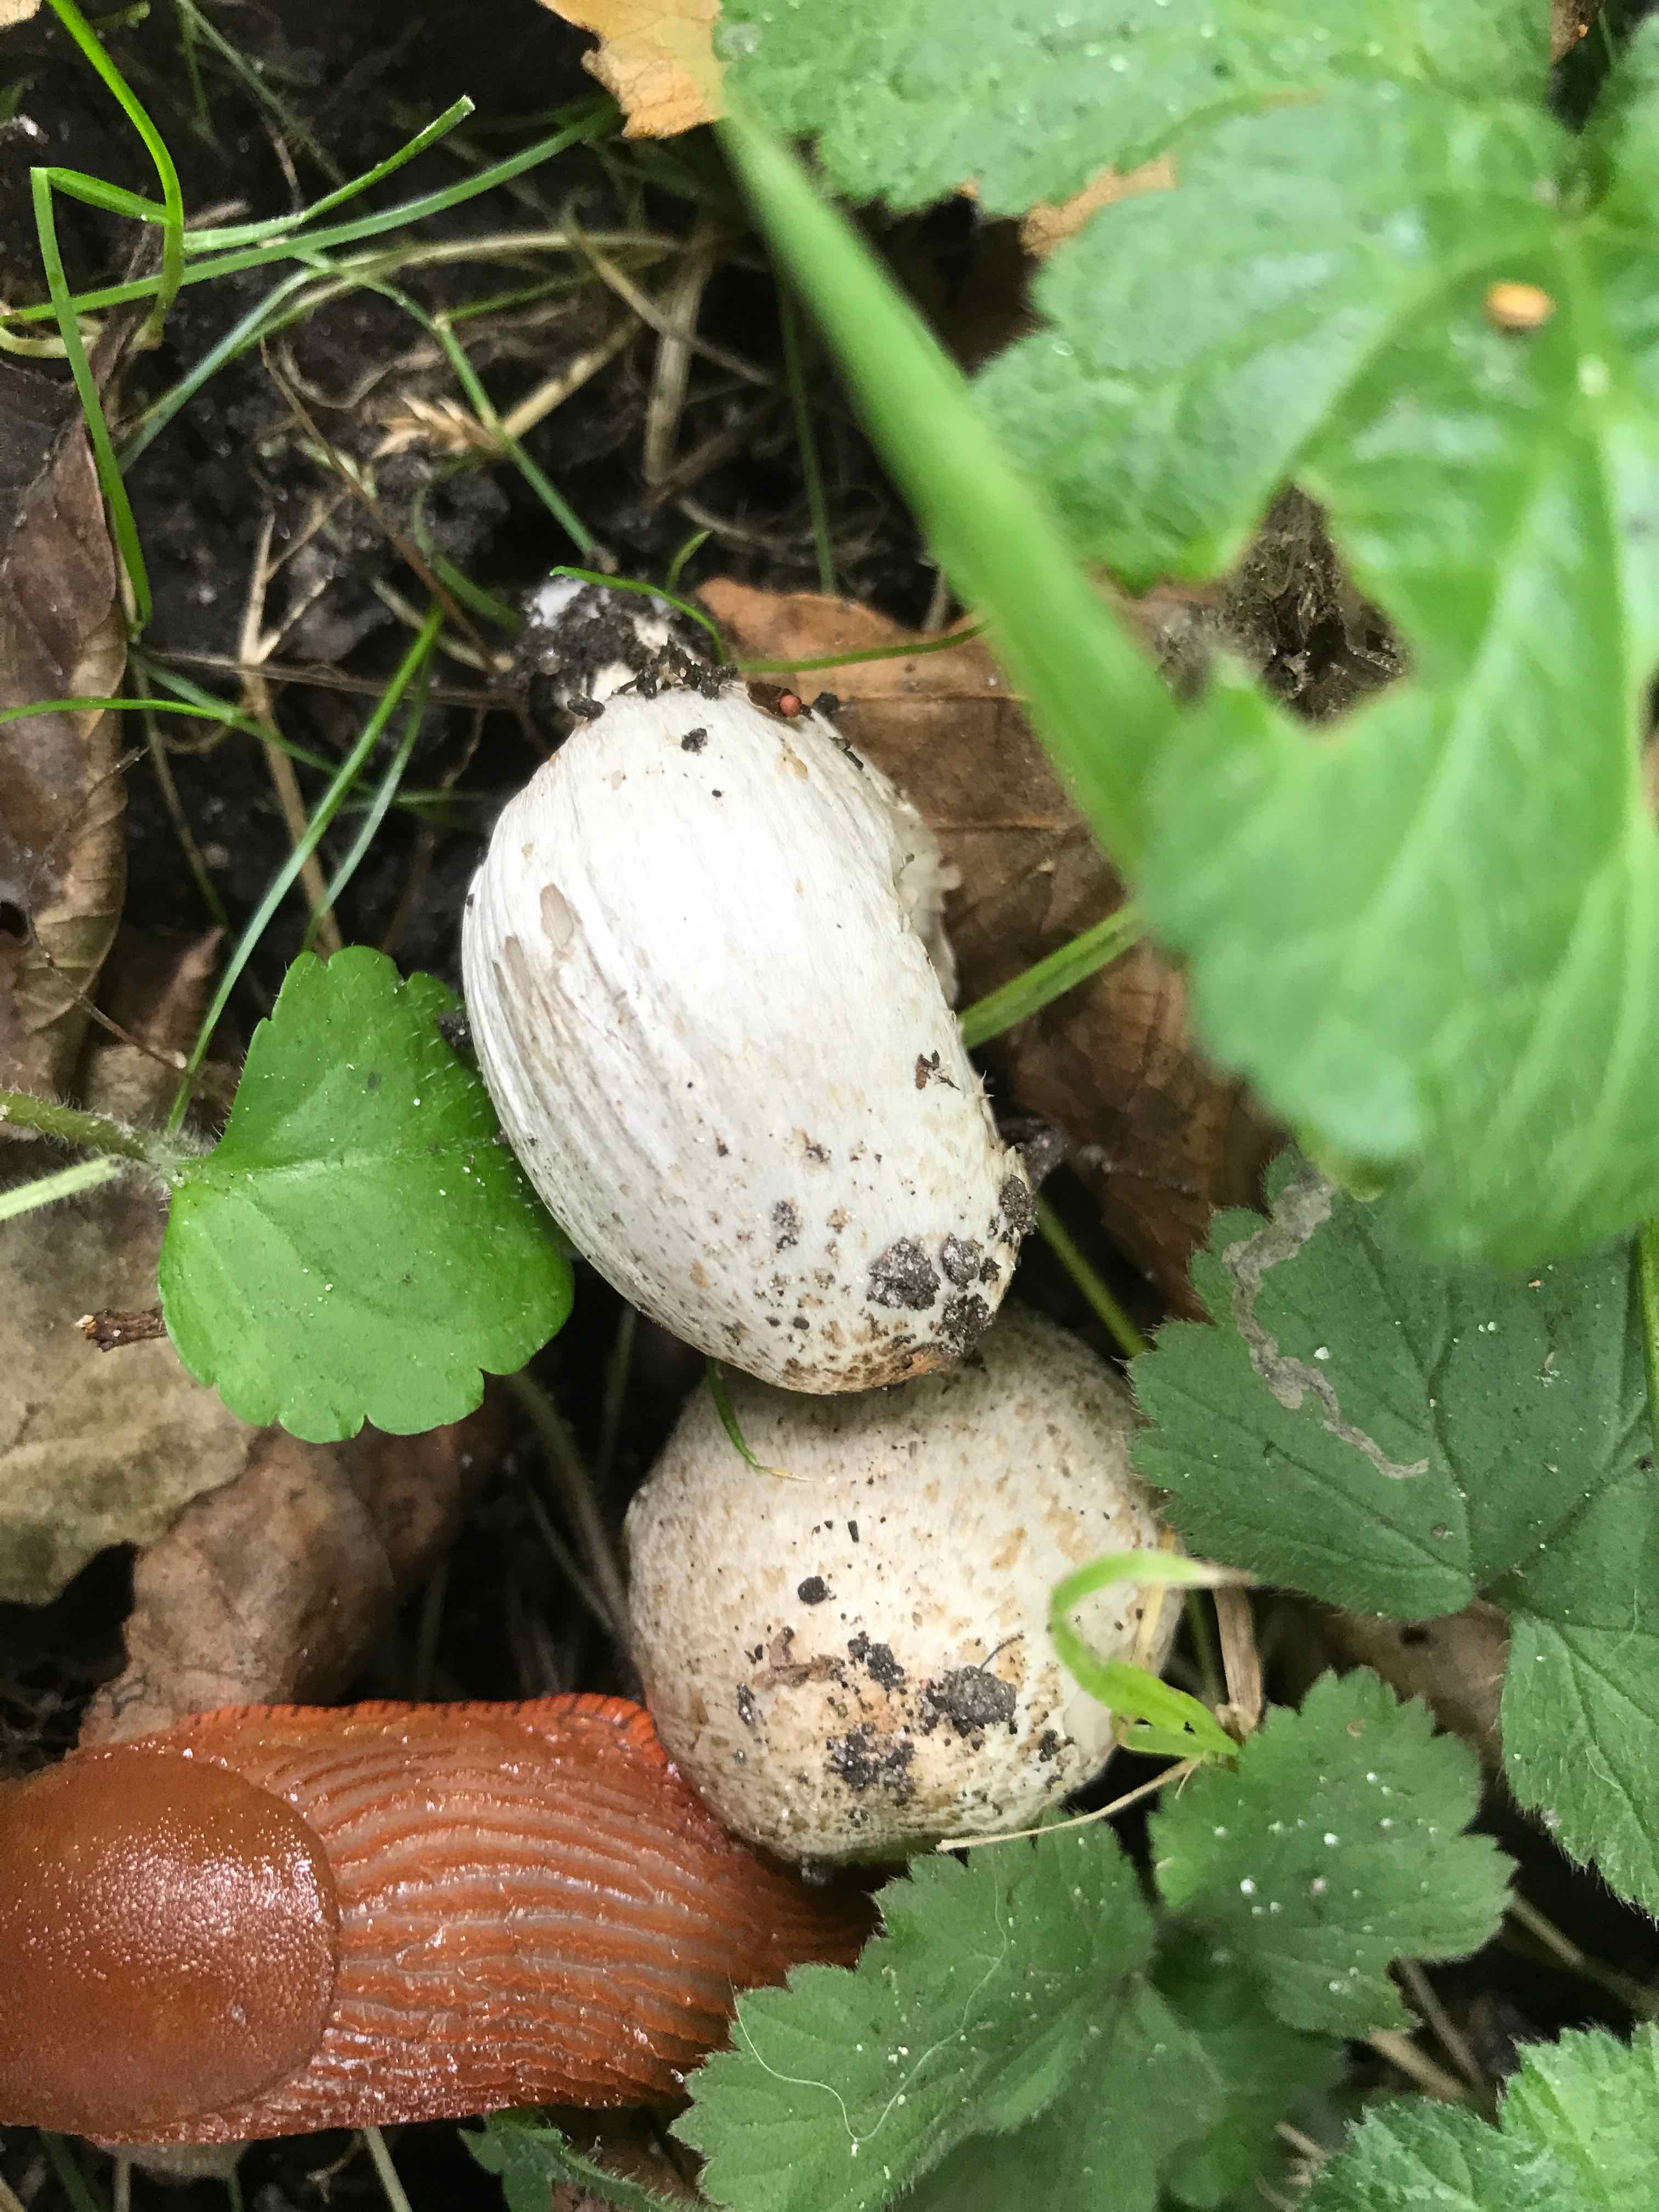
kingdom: Fungi
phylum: Basidiomycota
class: Agaricomycetes
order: Agaricales
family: Psathyrellaceae
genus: Coprinopsis
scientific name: Coprinopsis romagnesiana
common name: brunskællet blækhat
